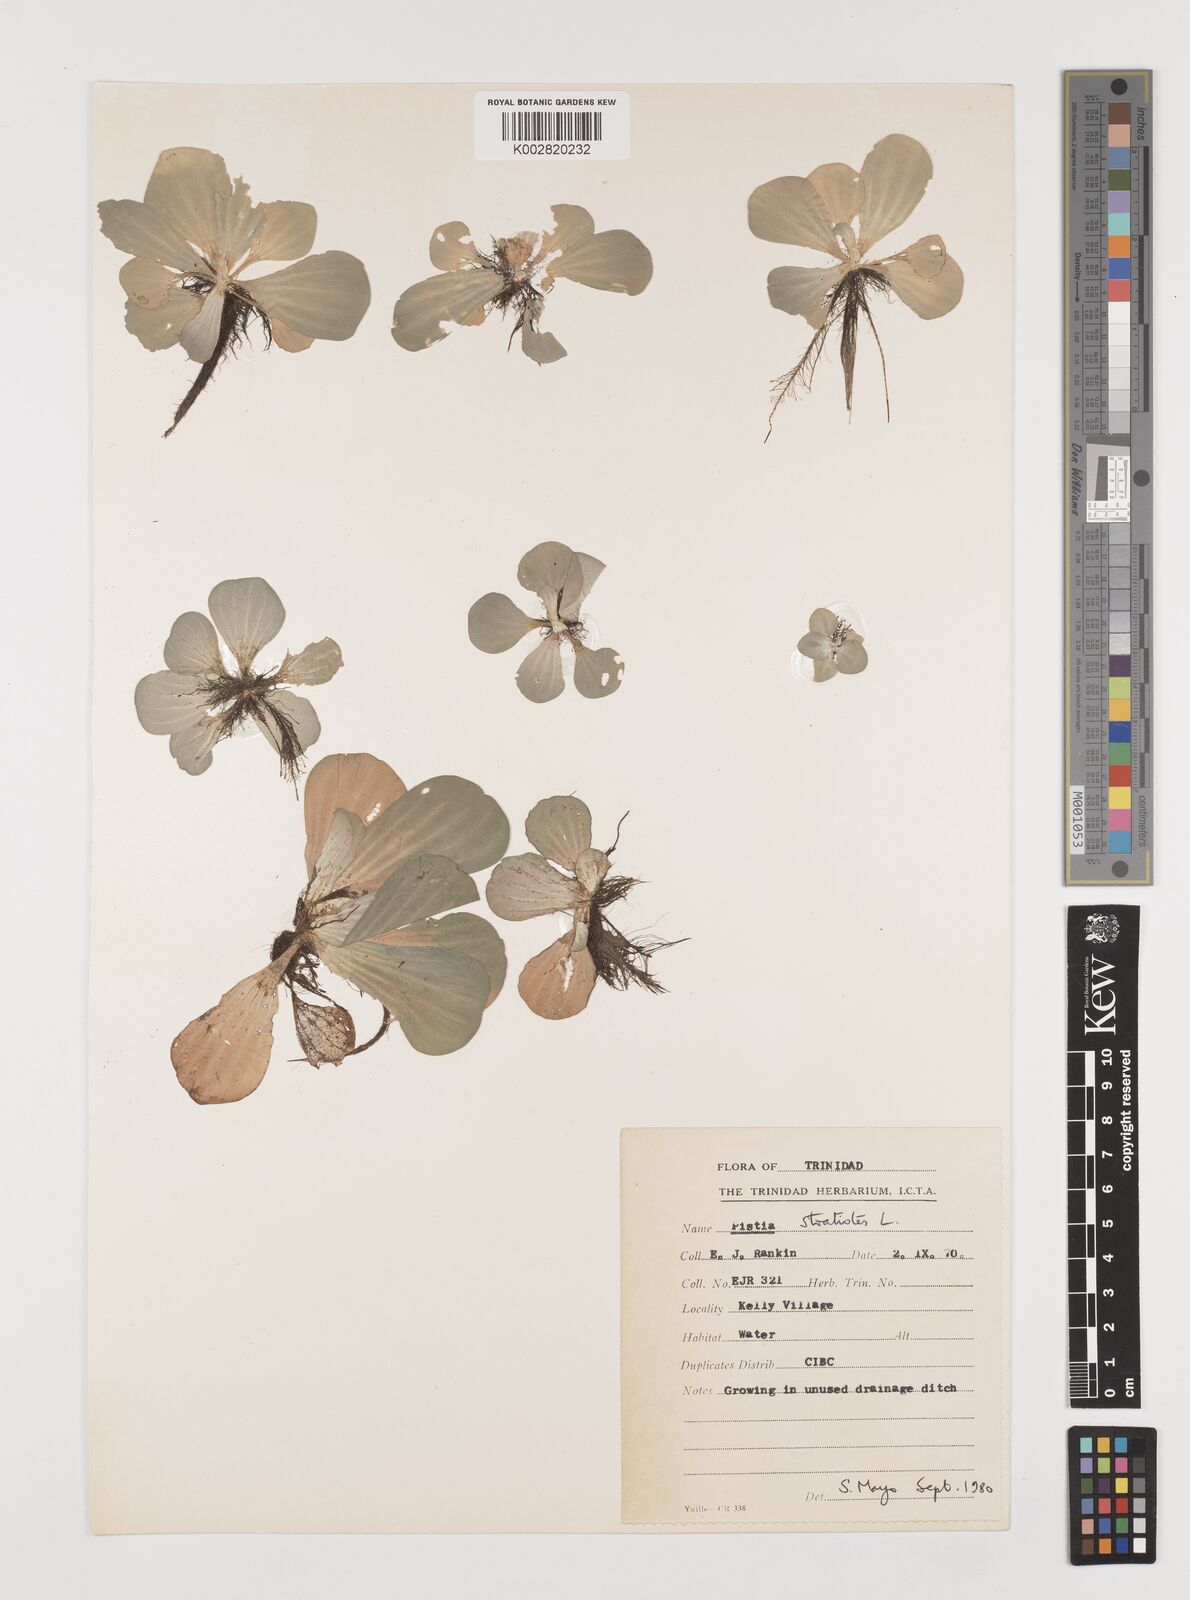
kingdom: Plantae
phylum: Tracheophyta
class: Liliopsida
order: Alismatales
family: Araceae
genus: Pistia
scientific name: Pistia stratiotes
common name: Water lettuce
